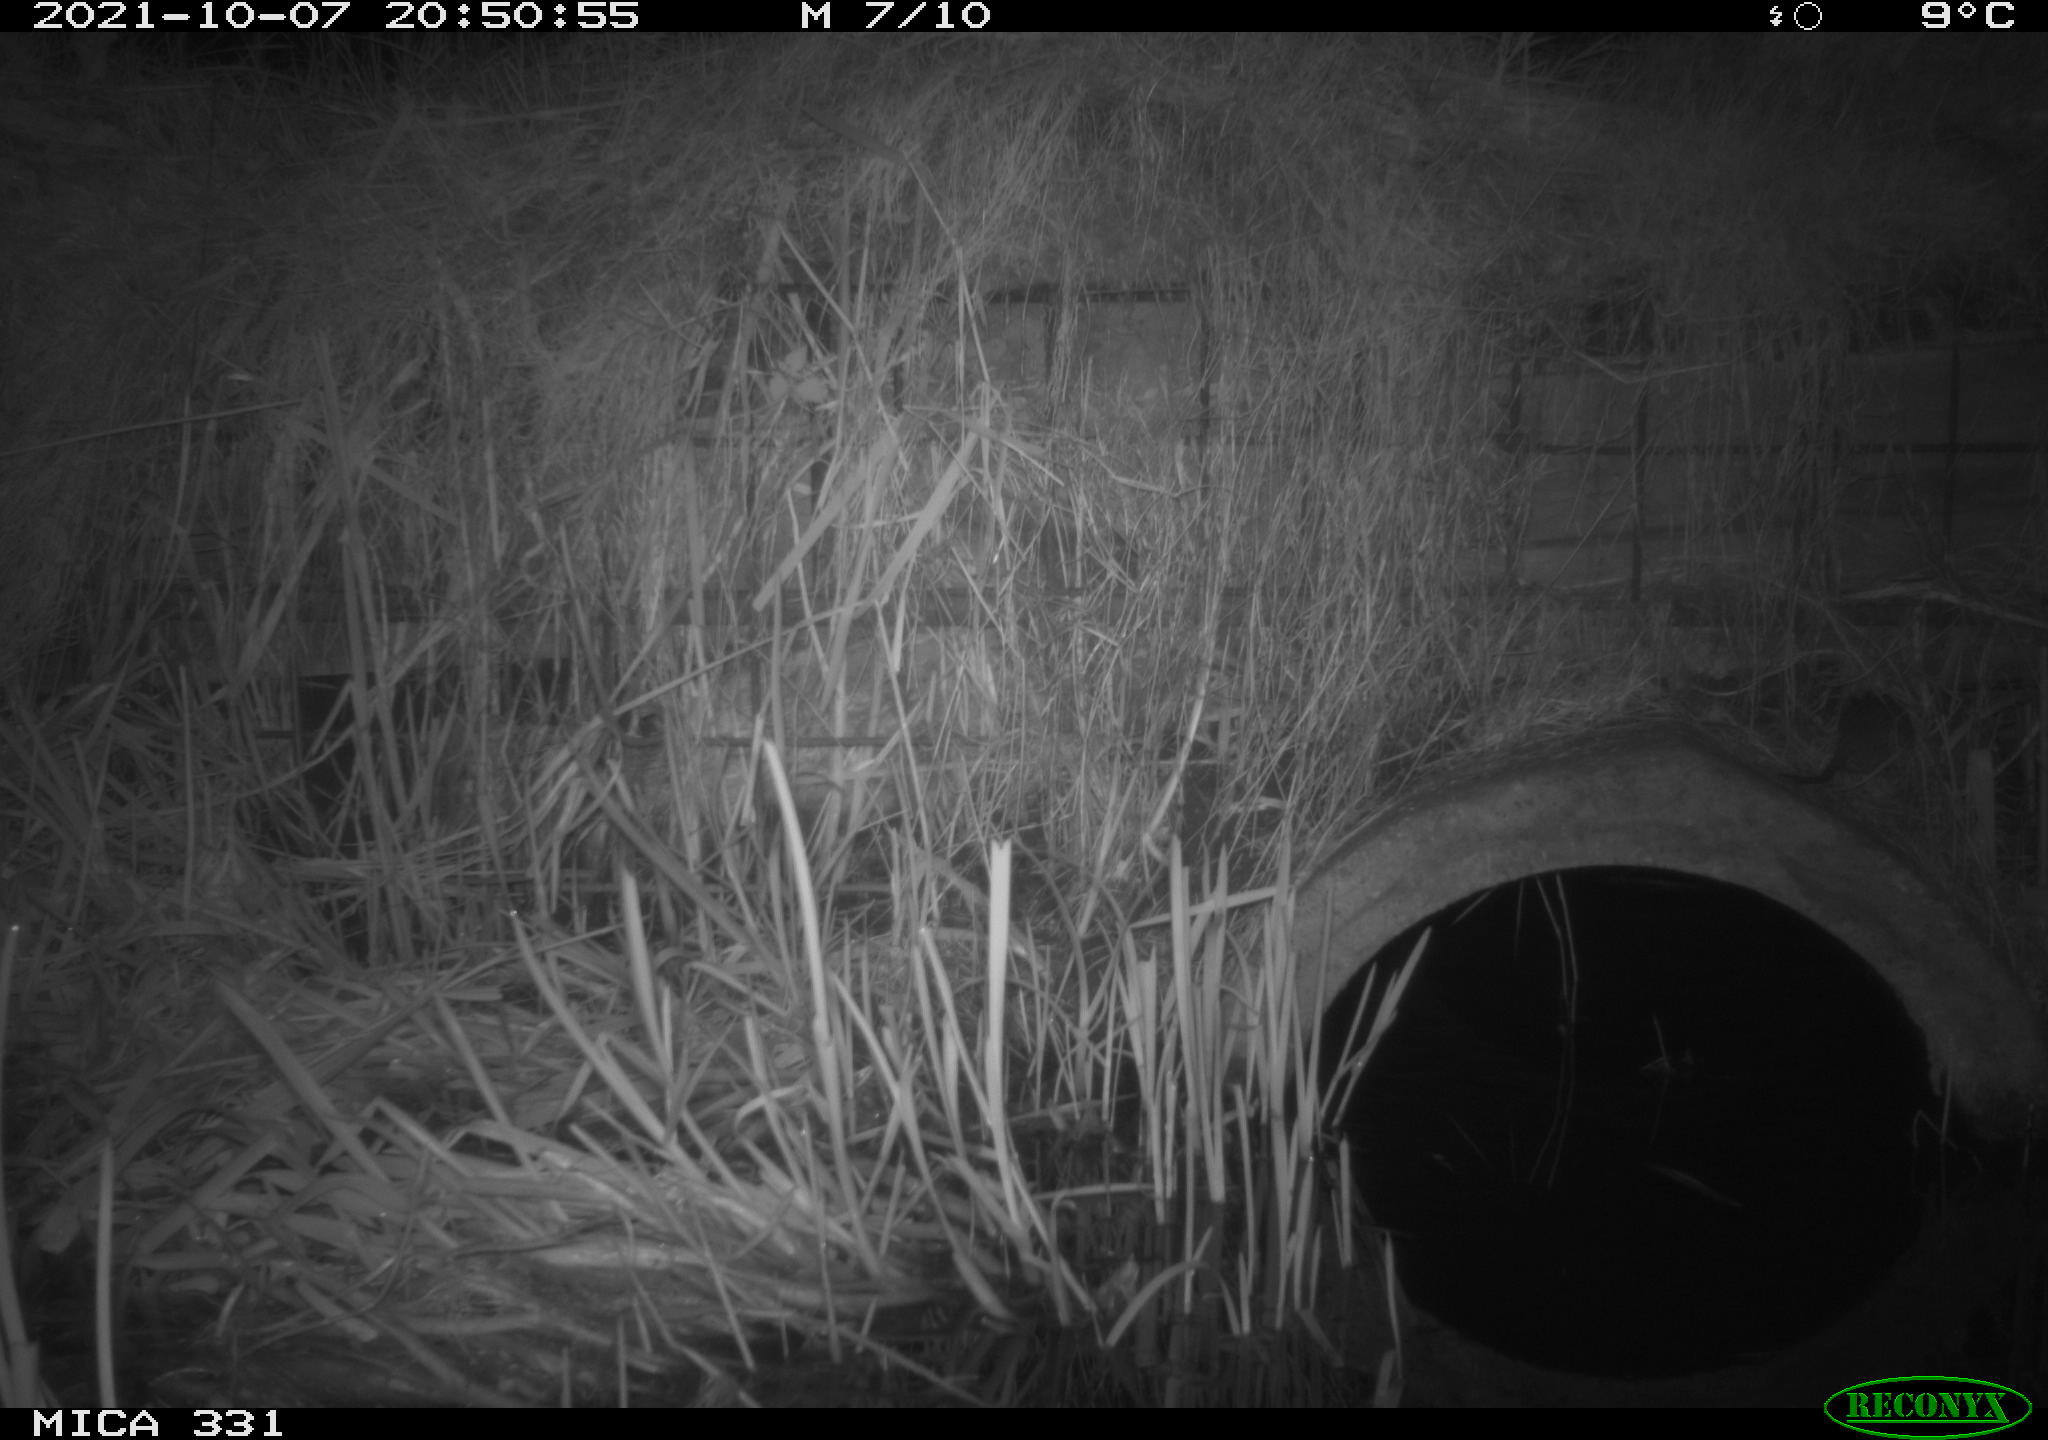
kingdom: Animalia
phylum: Chordata
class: Mammalia
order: Rodentia
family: Muridae
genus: Rattus
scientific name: Rattus norvegicus
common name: Brown rat
